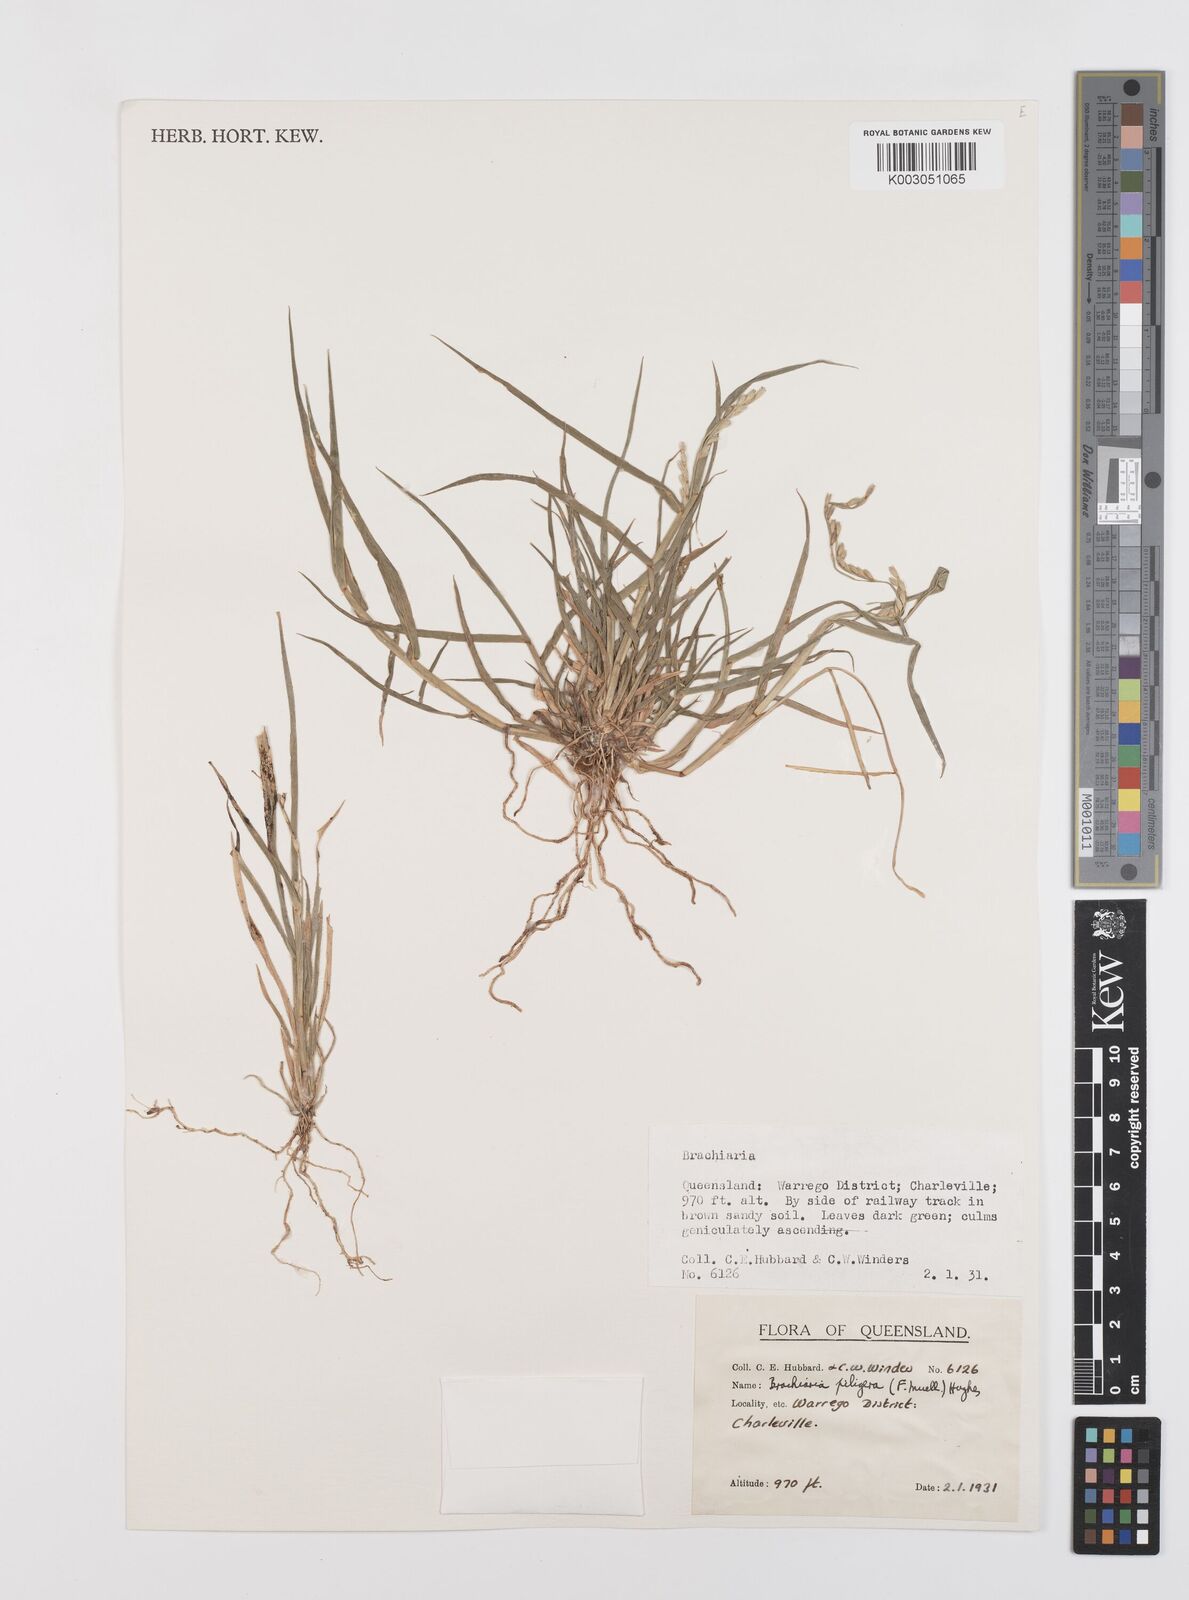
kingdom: Plantae
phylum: Tracheophyta
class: Liliopsida
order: Poales
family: Poaceae
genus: Urochloa
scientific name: Urochloa piligera
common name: Wattle signalgrass
